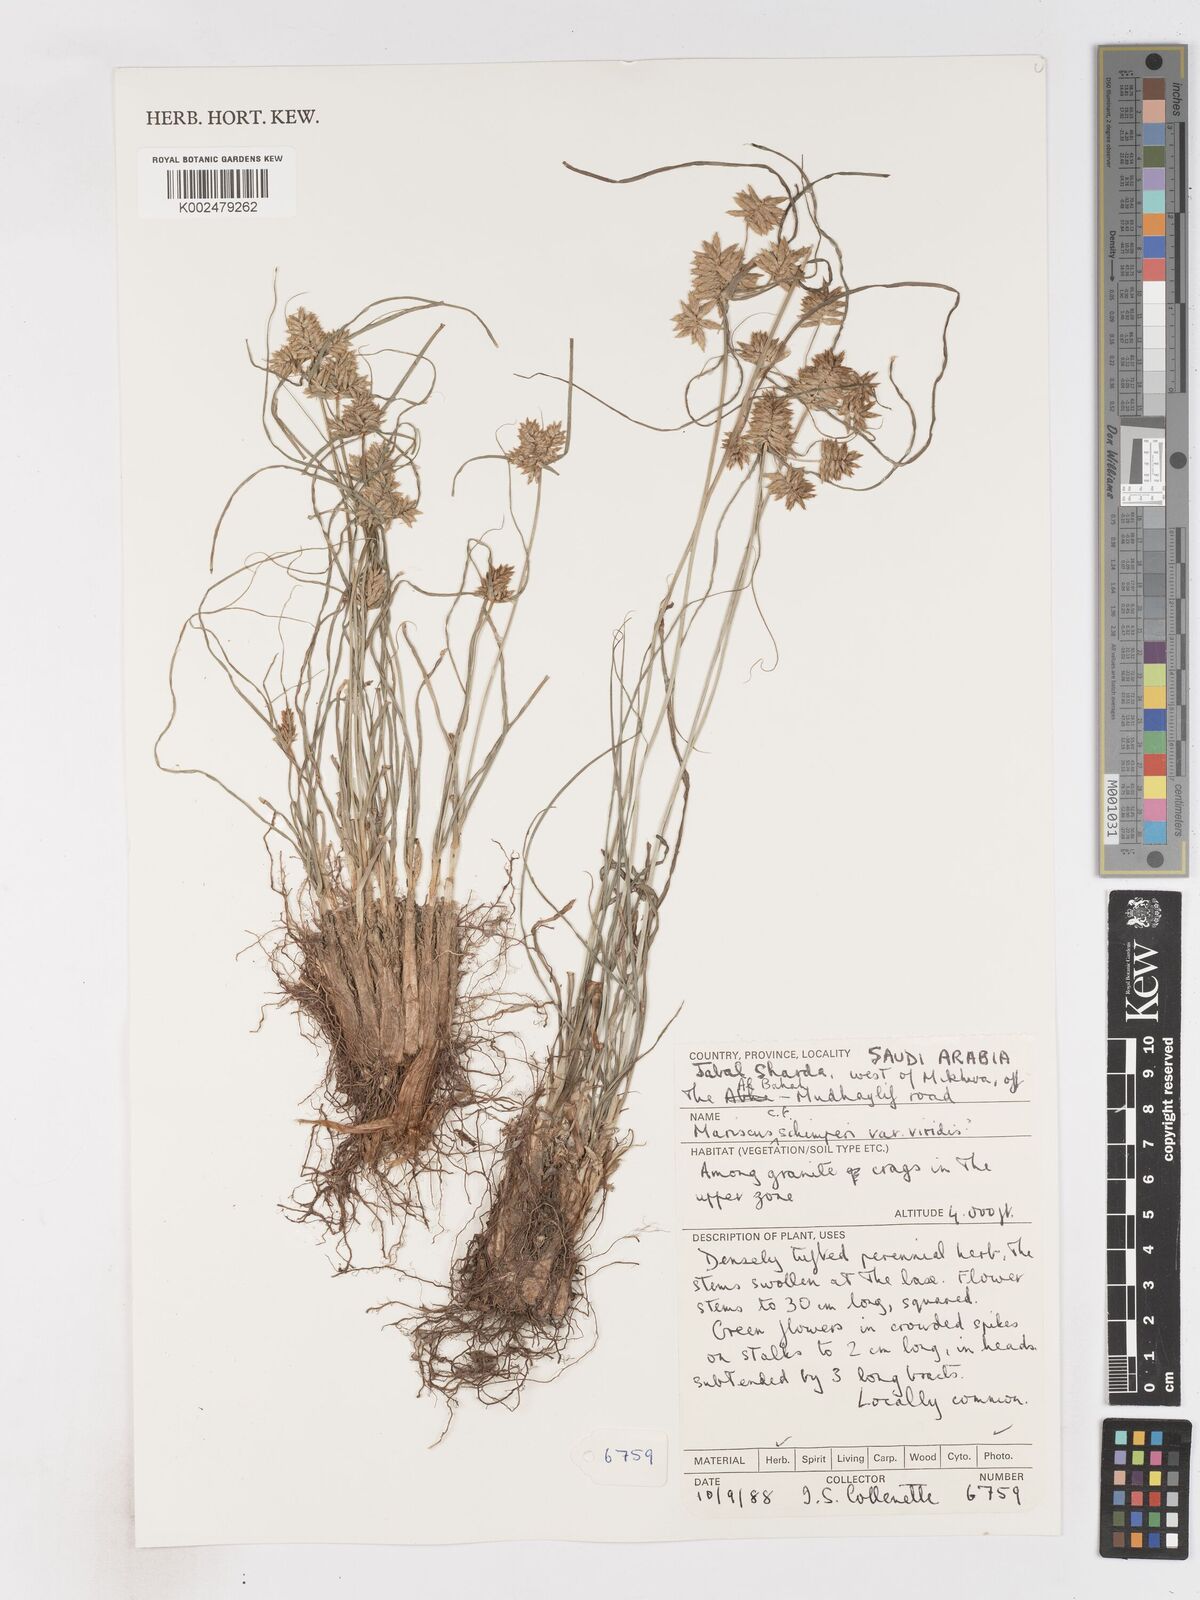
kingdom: Plantae
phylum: Tracheophyta
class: Liliopsida
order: Poales
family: Cyperaceae
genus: Cyperus
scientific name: Cyperus
